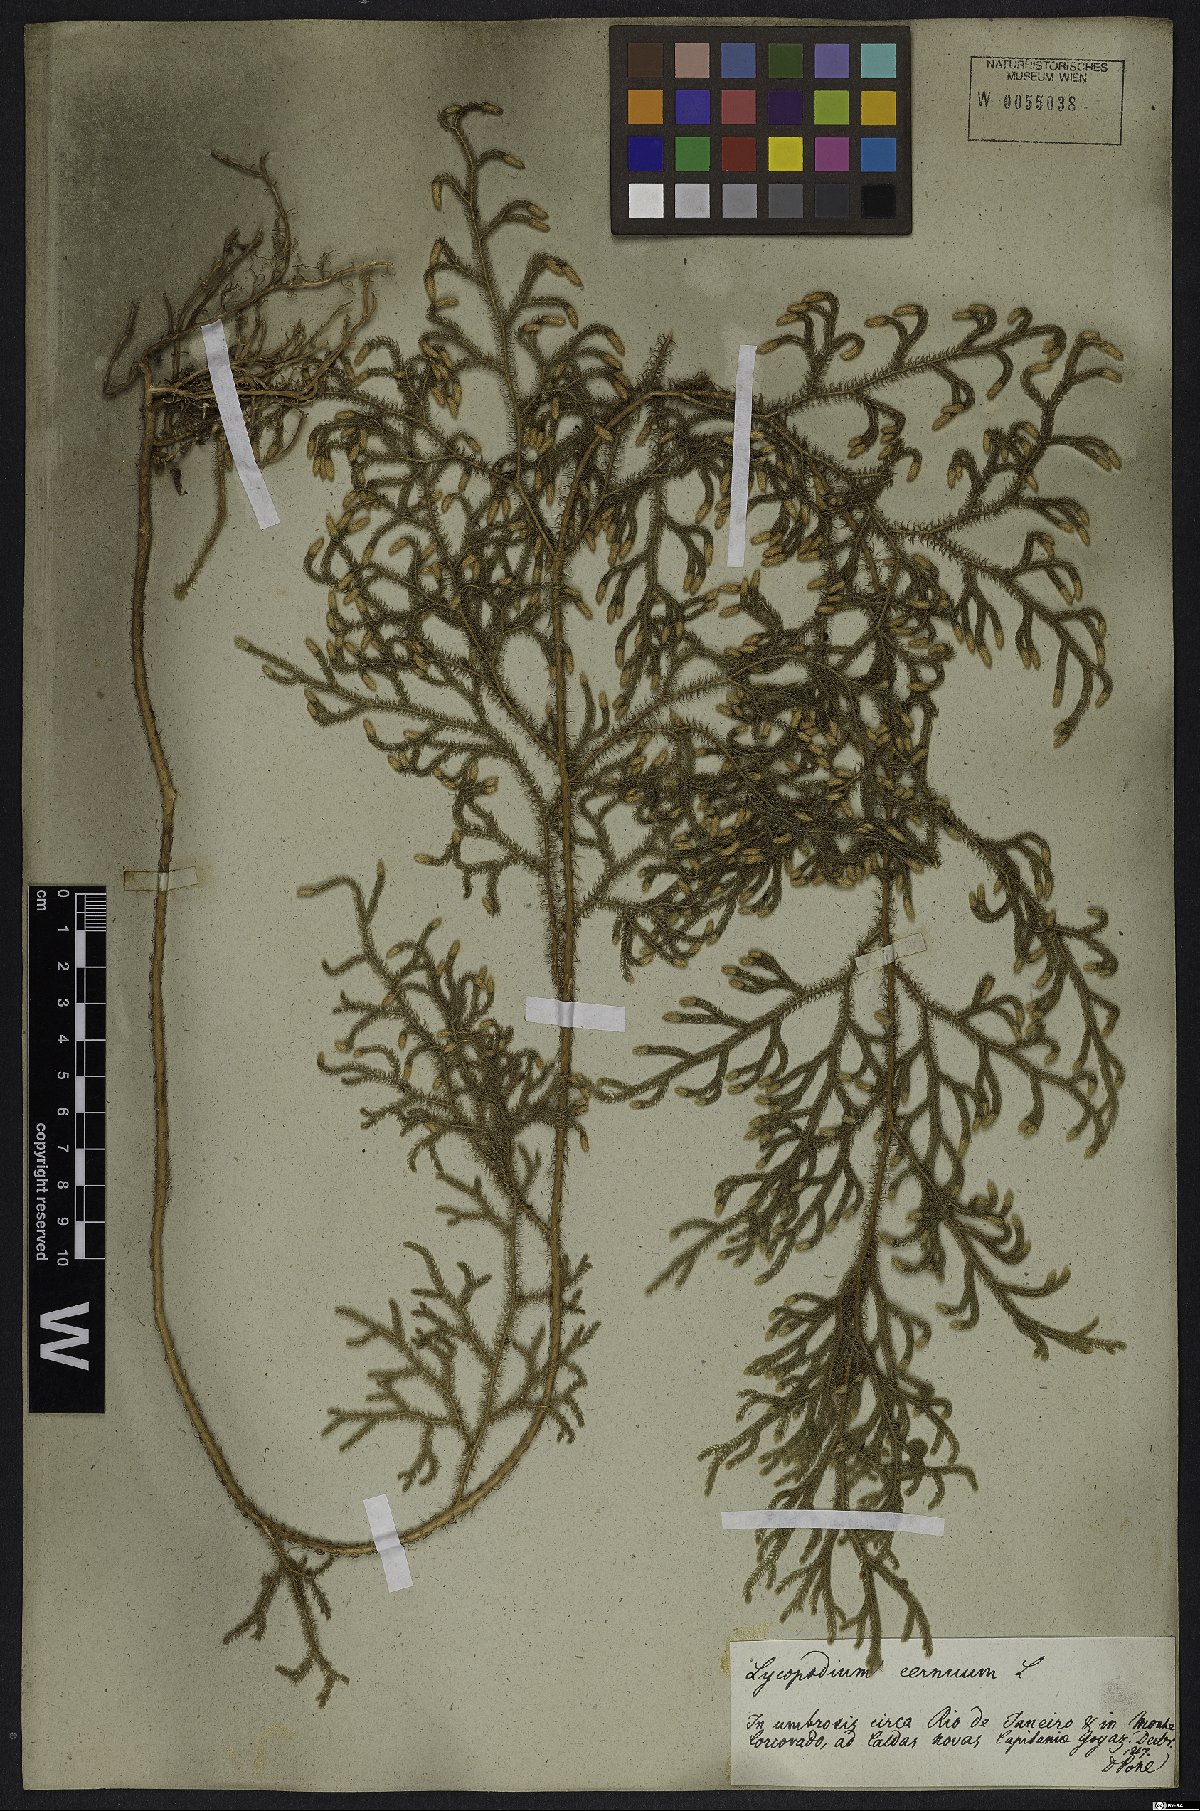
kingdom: Plantae
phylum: Tracheophyta
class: Lycopodiopsida
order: Lycopodiales
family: Lycopodiaceae
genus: Palhinhaea
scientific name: Palhinhaea cernua
